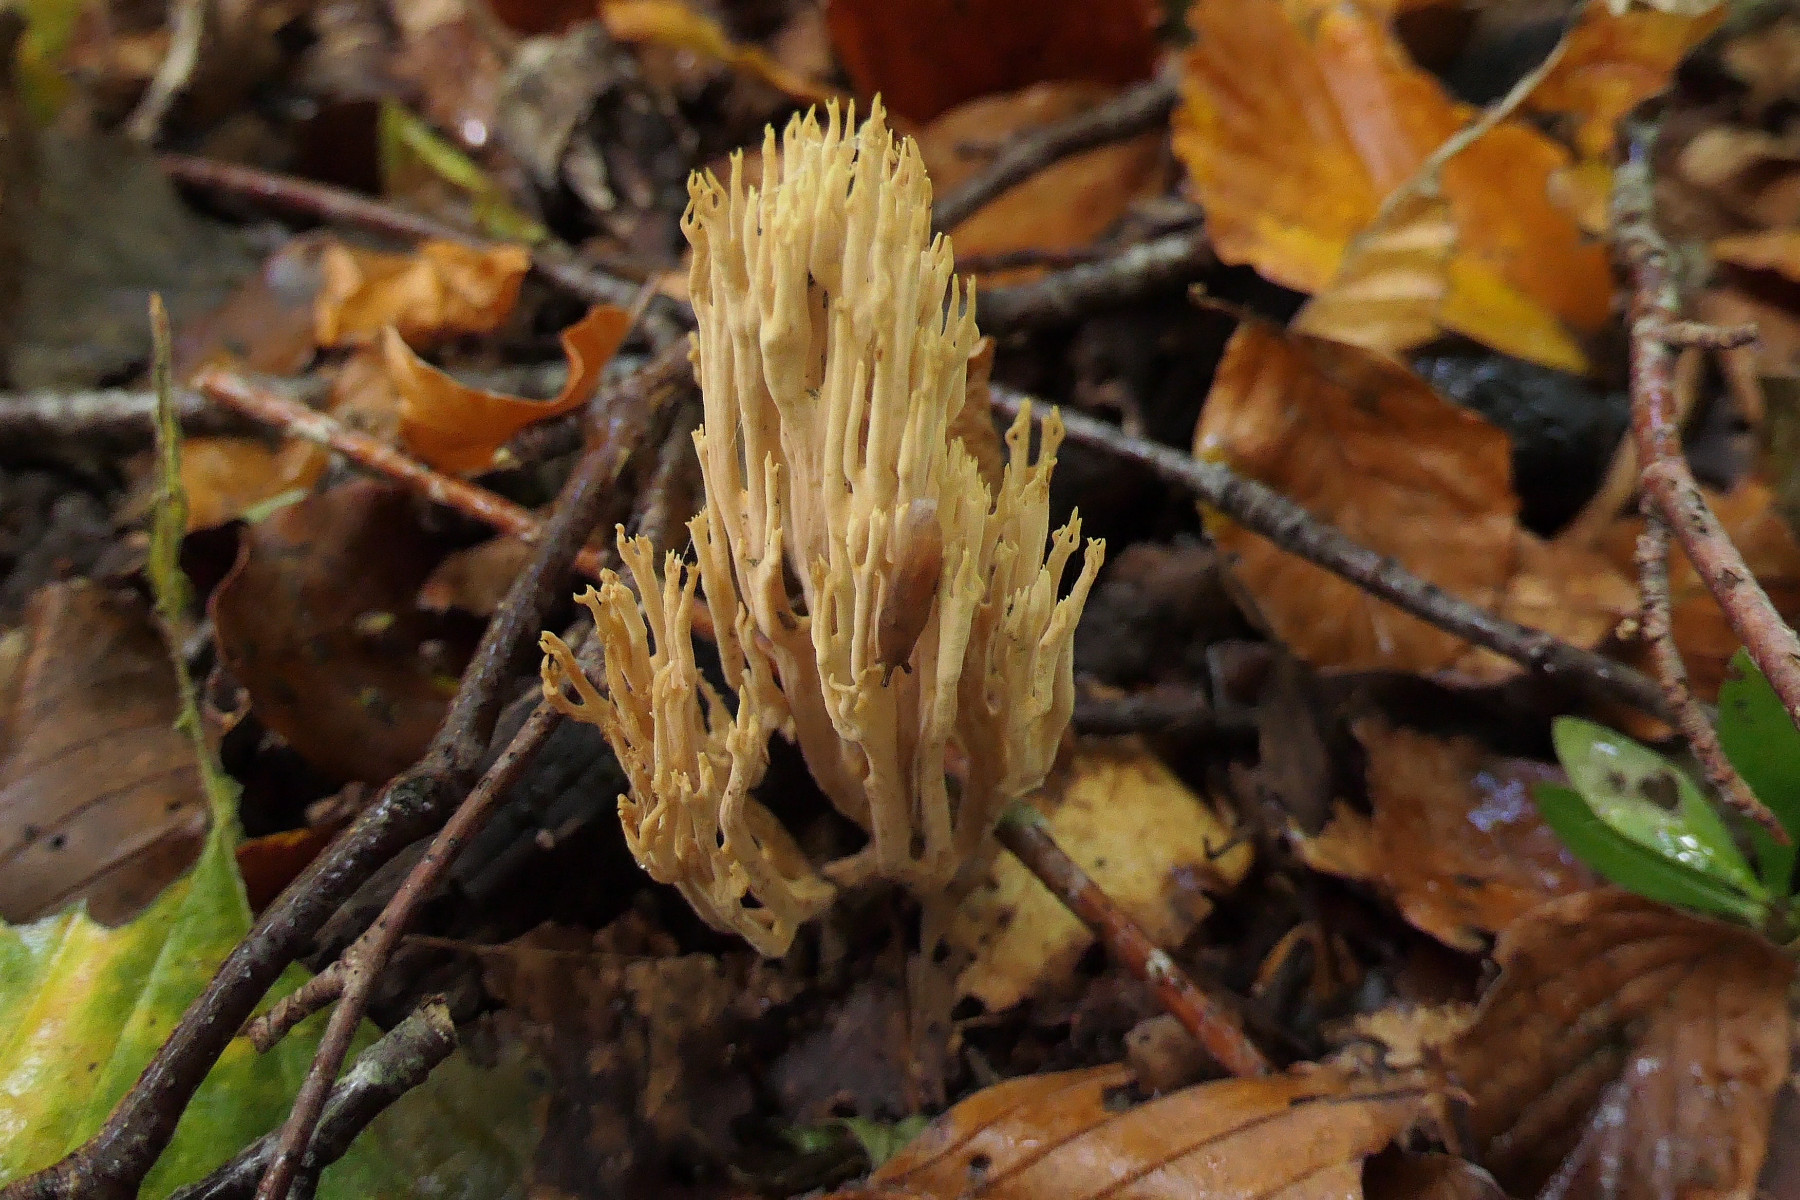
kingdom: Fungi
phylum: Basidiomycota
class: Agaricomycetes
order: Gomphales
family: Gomphaceae
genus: Ramaria
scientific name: Ramaria stricta
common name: rank koralsvamp
